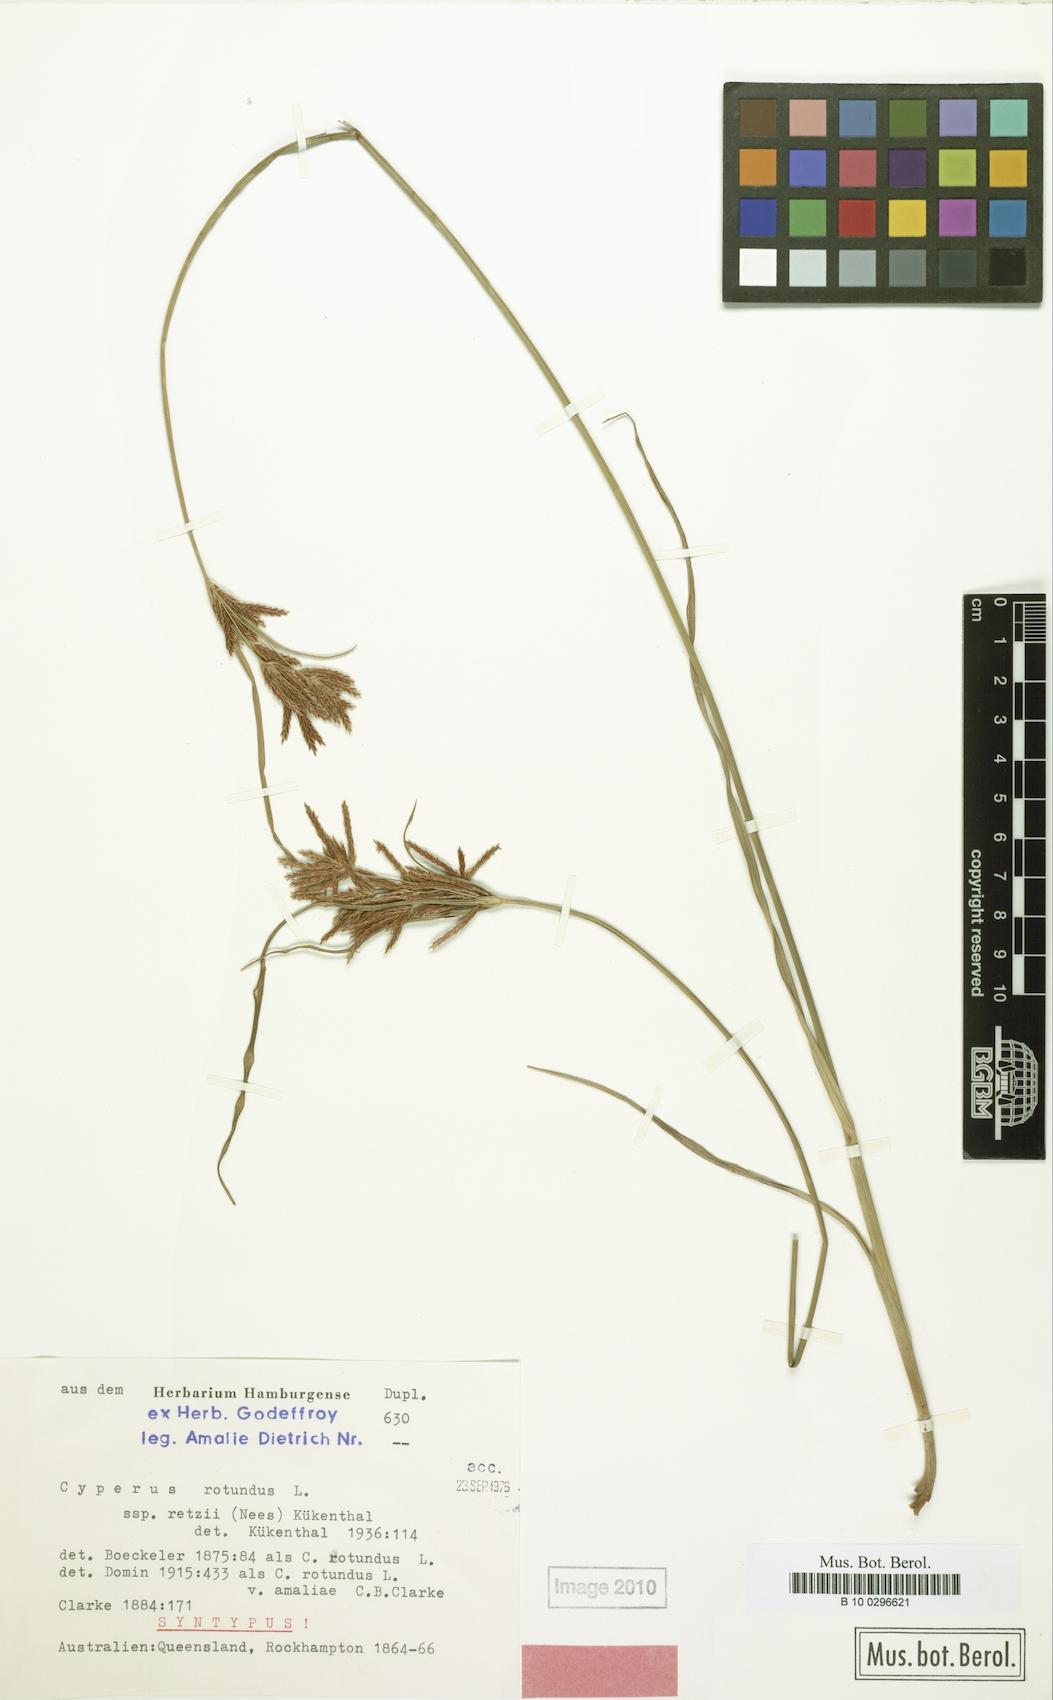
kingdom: Plantae
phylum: Tracheophyta
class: Liliopsida
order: Poales
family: Cyperaceae
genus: Cyperus
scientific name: Cyperus bifax
